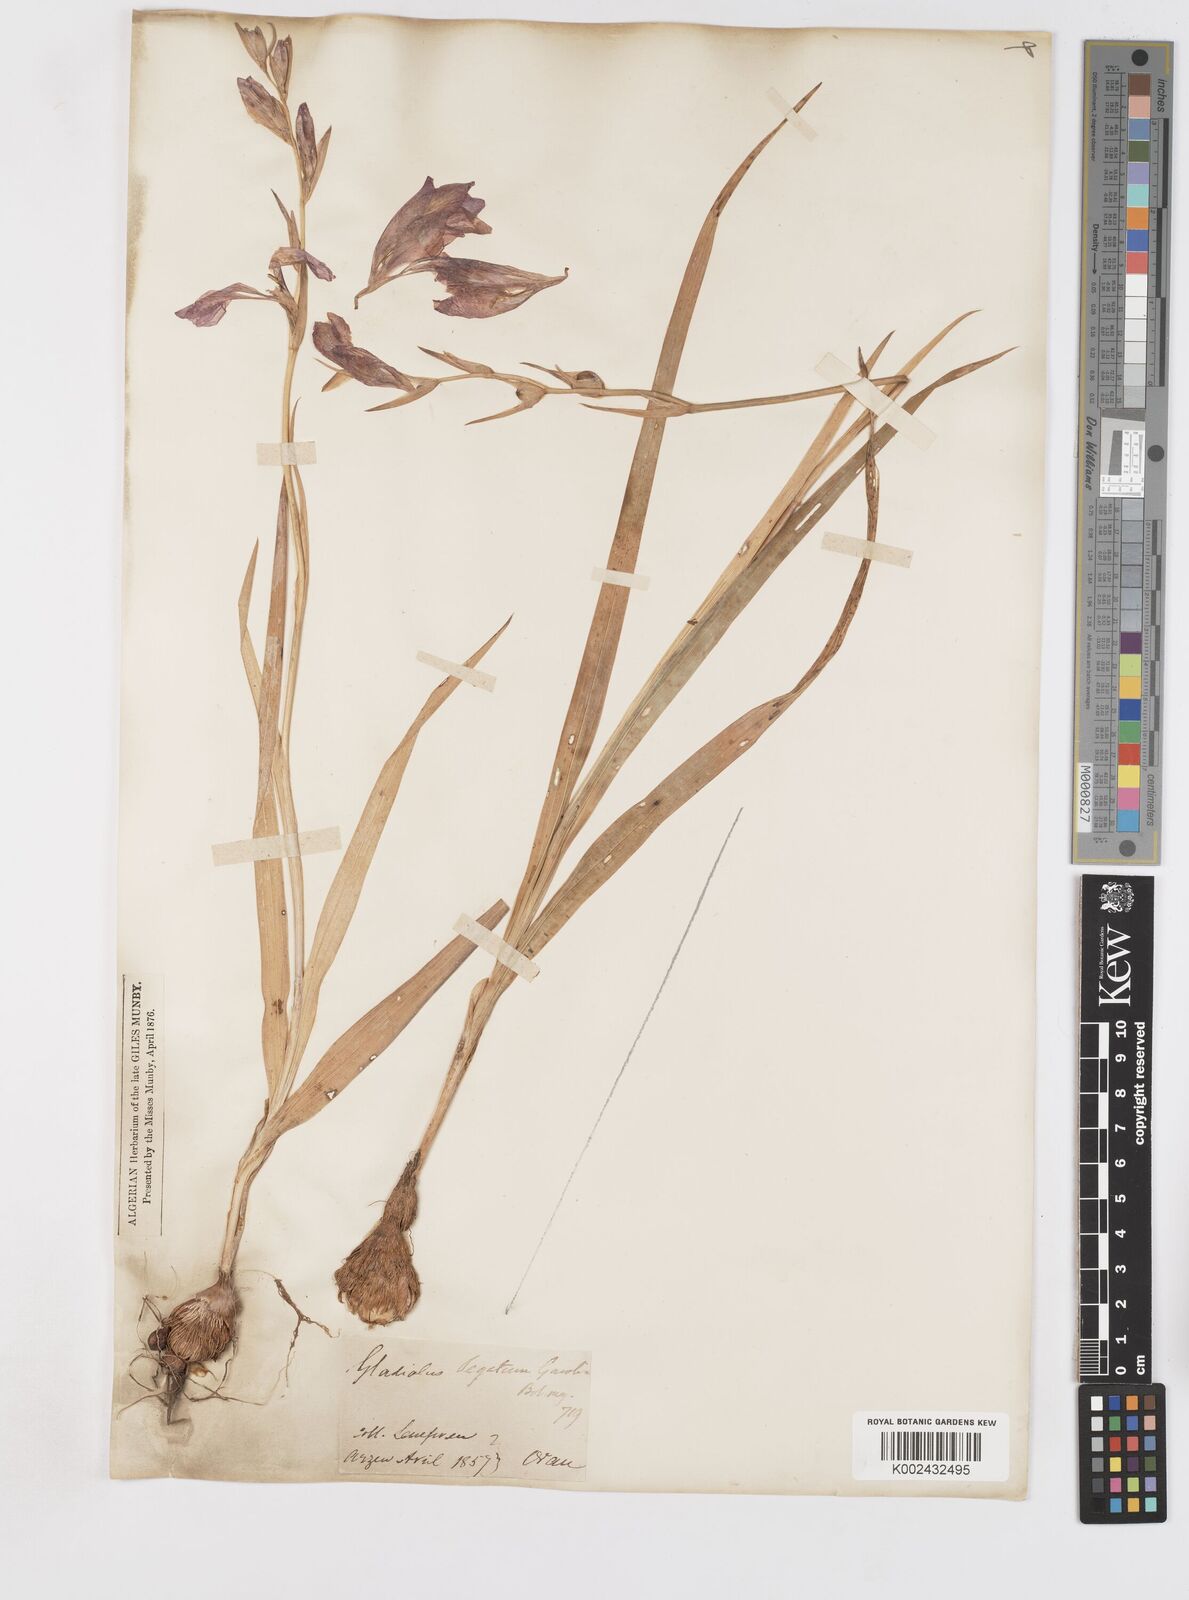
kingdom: Plantae
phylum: Tracheophyta
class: Liliopsida
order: Asparagales
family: Iridaceae
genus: Gladiolus
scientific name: Gladiolus italicus
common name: Field gladiolus
